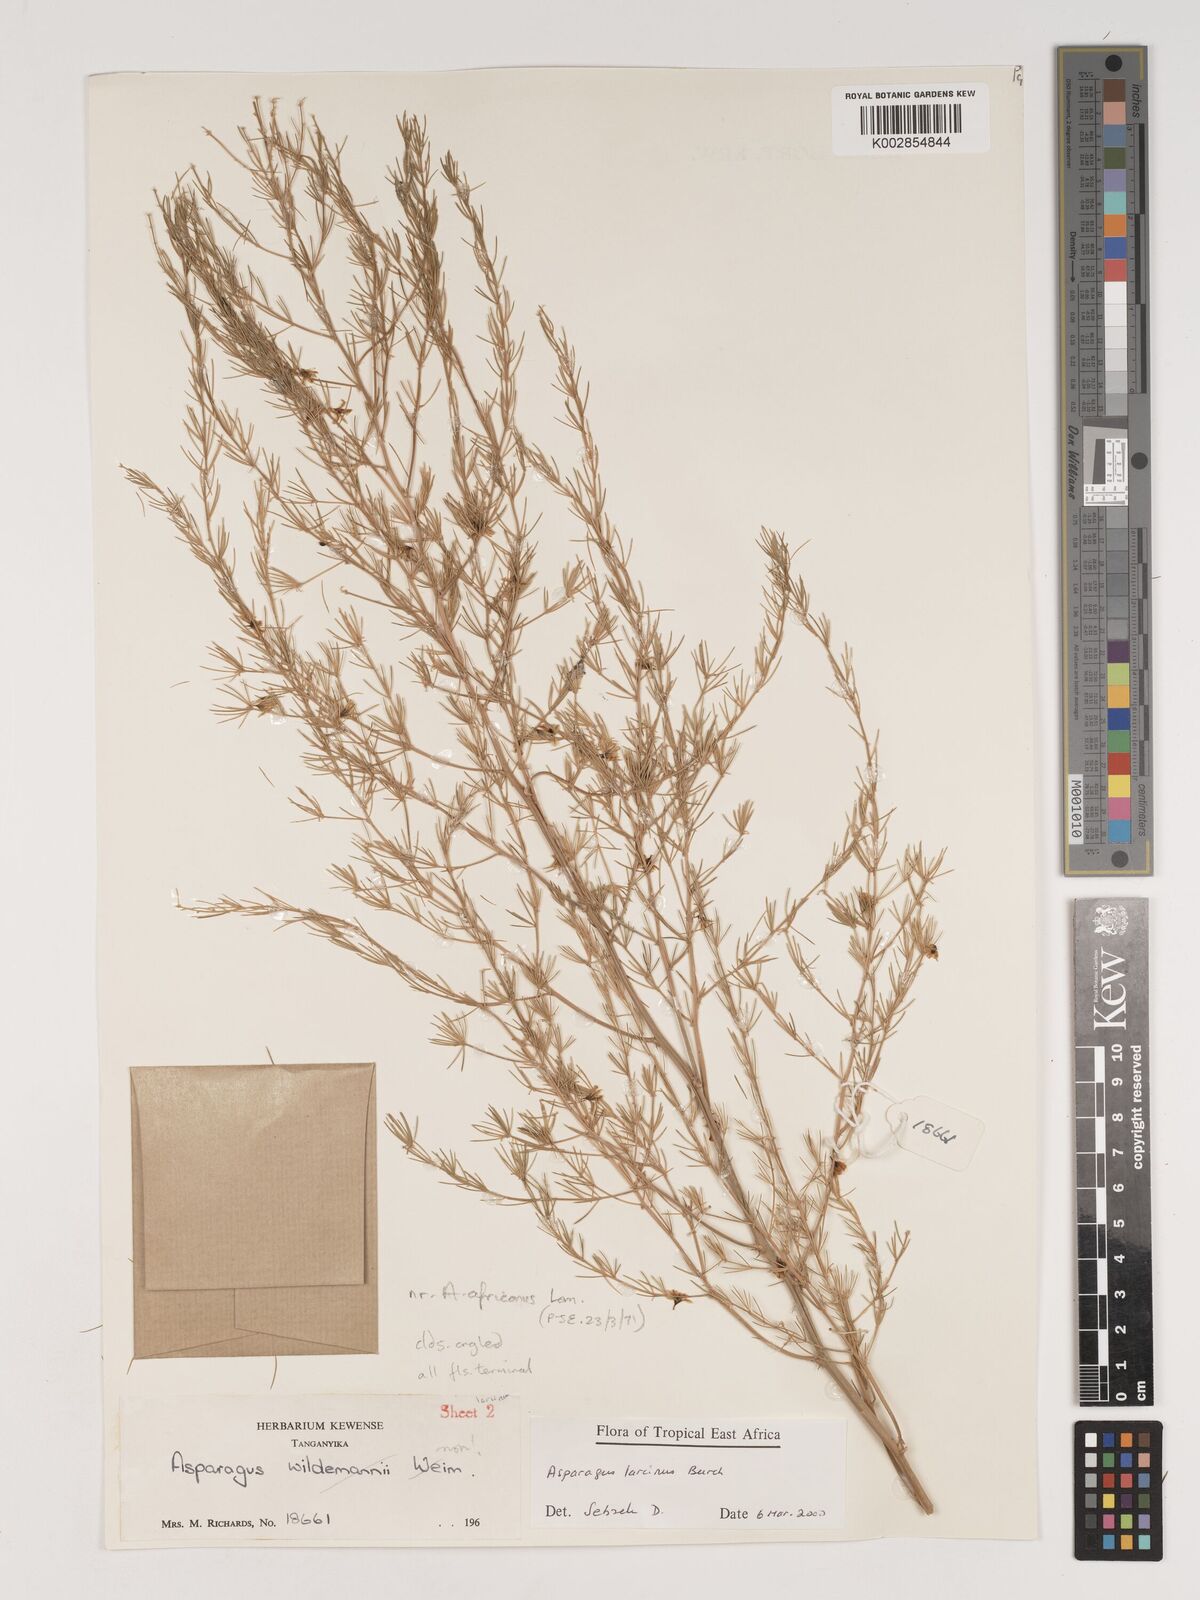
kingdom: Plantae
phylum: Tracheophyta
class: Liliopsida
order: Asparagales
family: Asparagaceae
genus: Asparagus
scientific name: Asparagus laricinus
